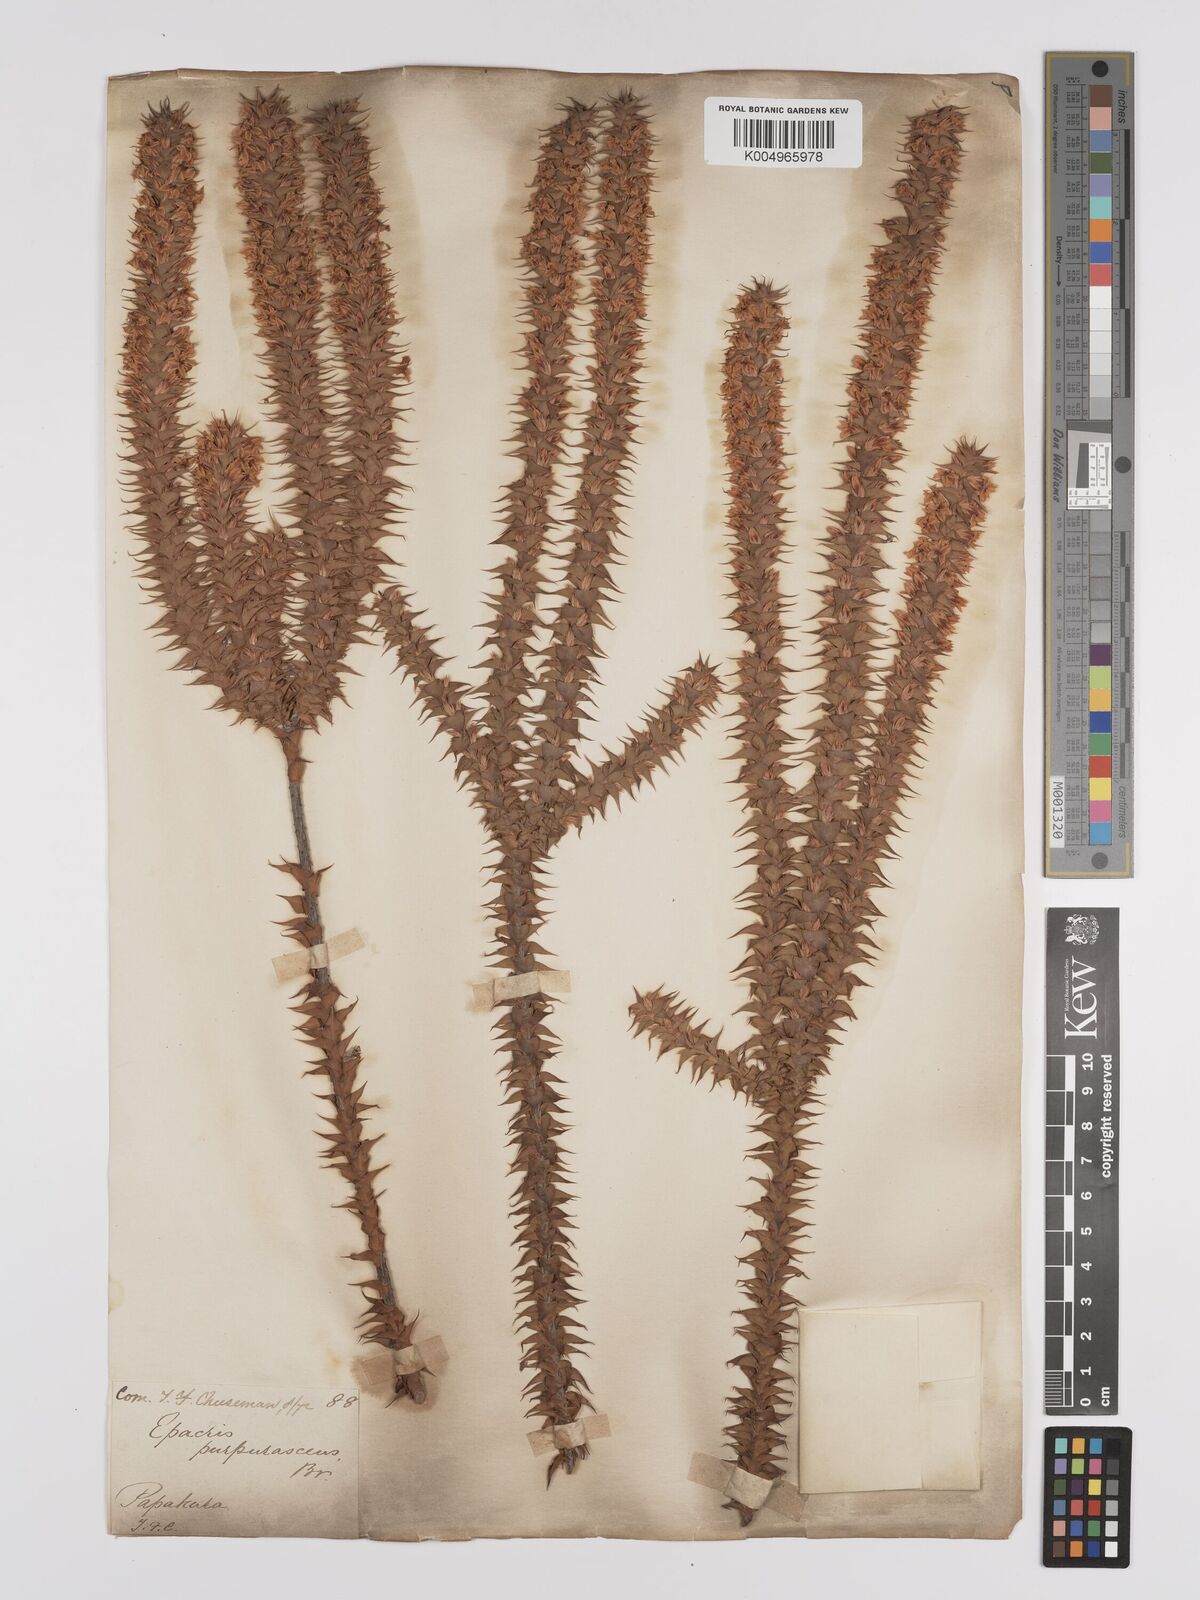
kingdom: Plantae
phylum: Tracheophyta
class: Magnoliopsida
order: Ericales
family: Ericaceae
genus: Epacris
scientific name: Epacris purpurascens
